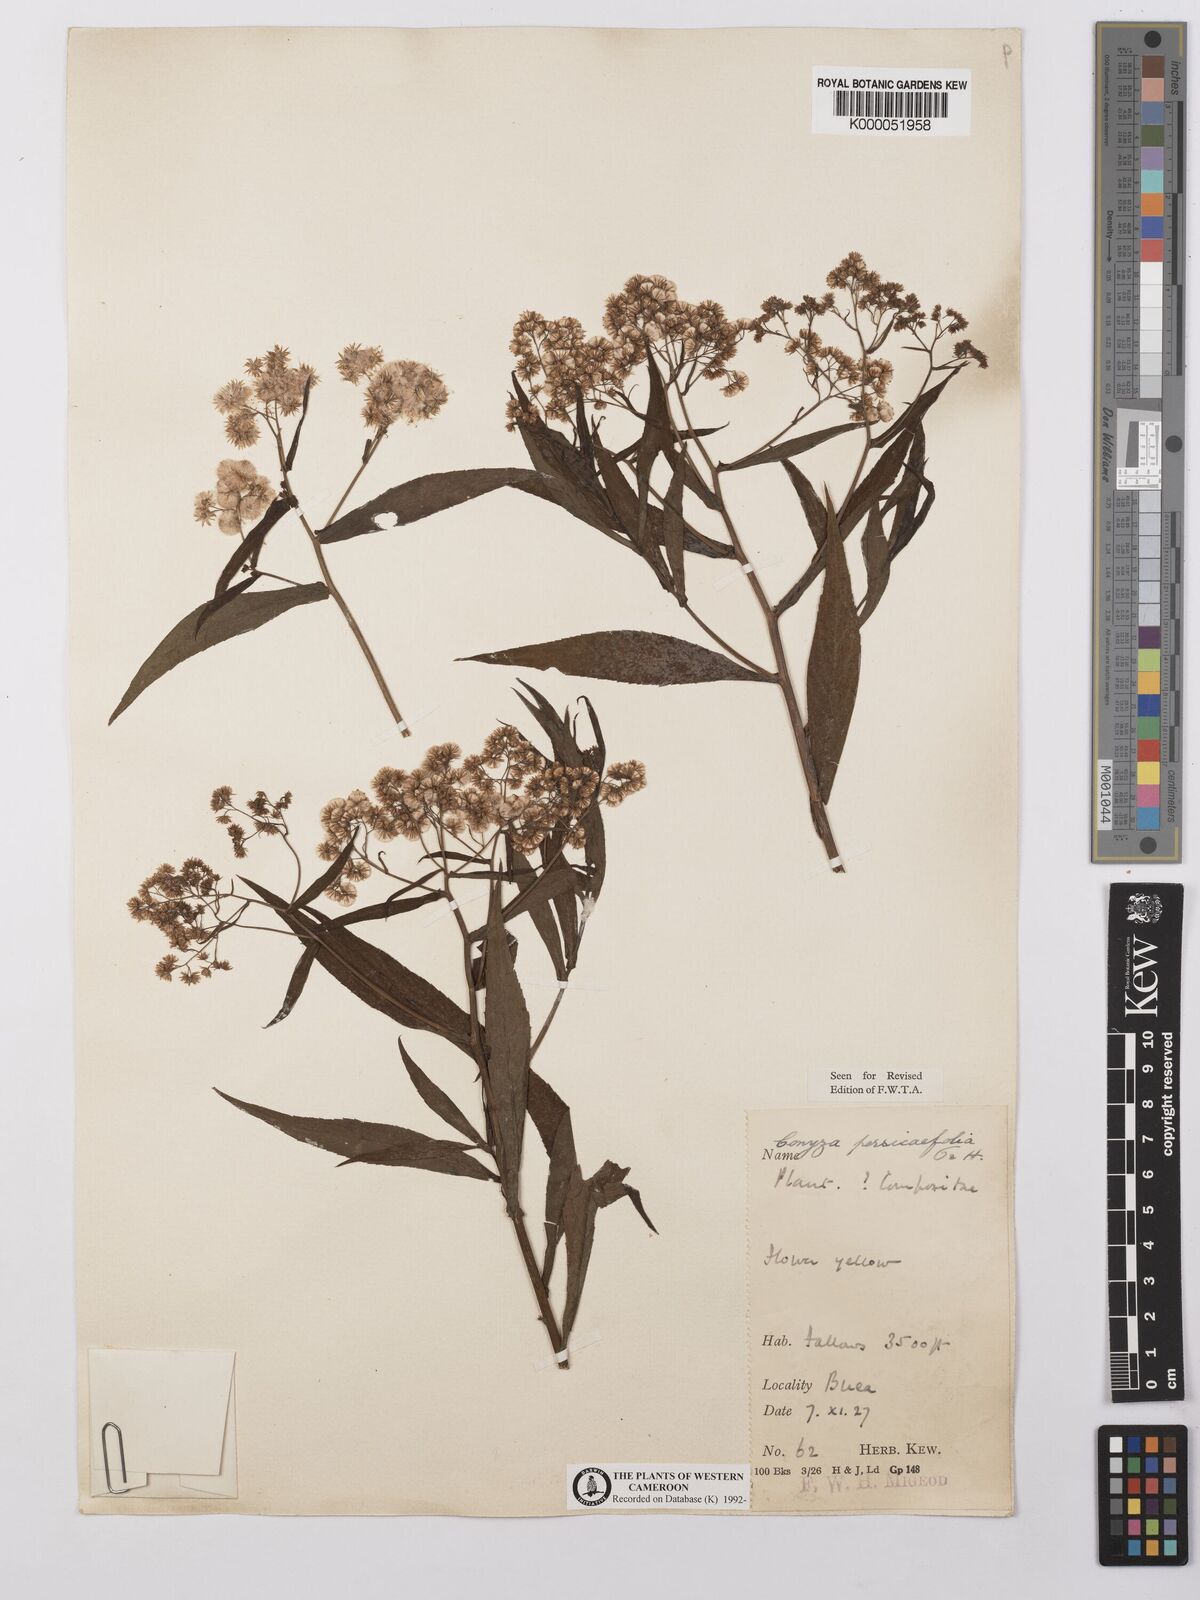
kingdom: Plantae
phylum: Tracheophyta
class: Magnoliopsida
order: Asterales
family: Asteraceae
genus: Nidorella
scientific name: Nidorella attenuata
